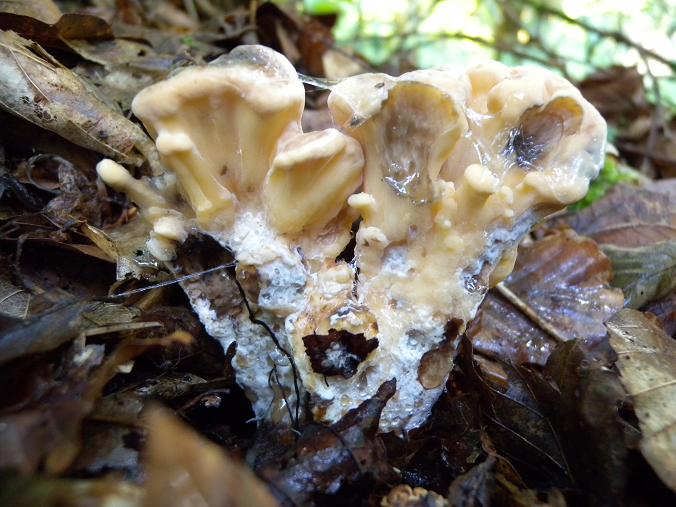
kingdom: Fungi
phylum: Basidiomycota
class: Agaricomycetes
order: Polyporales
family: Meripilaceae
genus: Meripilus
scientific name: Meripilus giganteus
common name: kæmpeporesvamp
